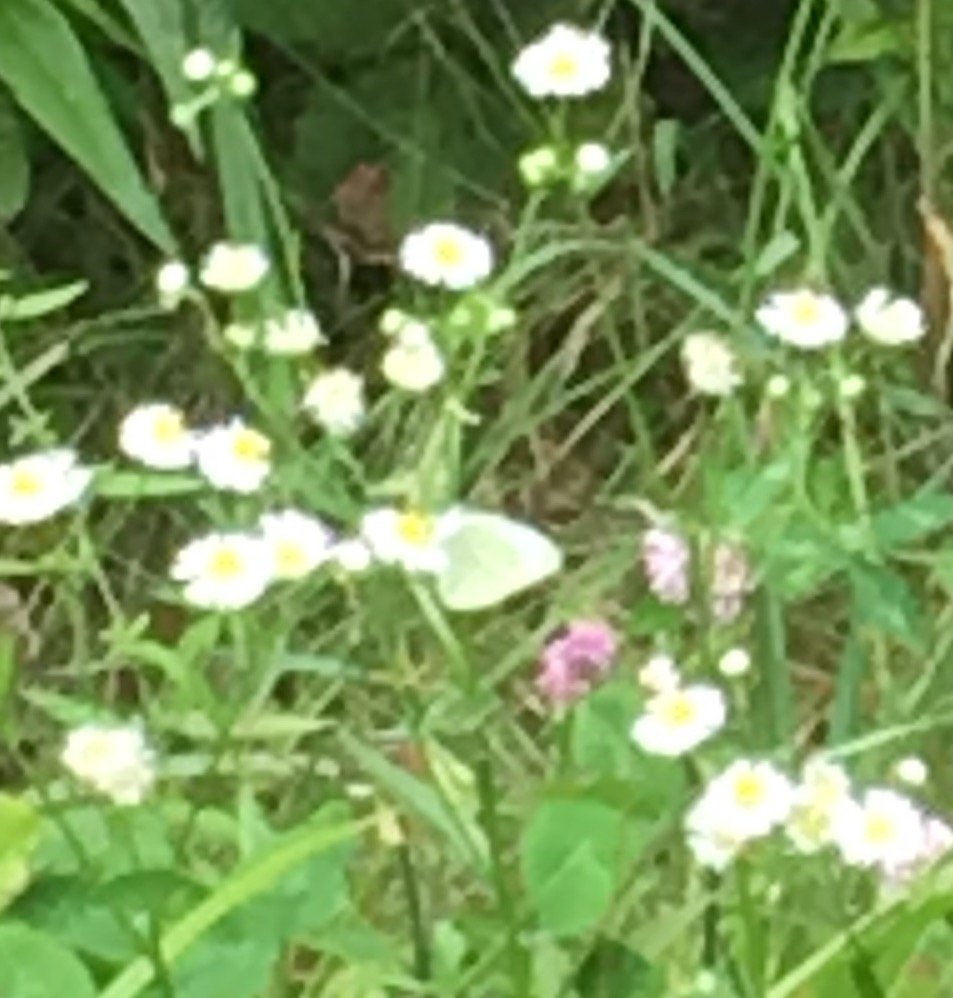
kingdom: Animalia
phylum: Arthropoda
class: Insecta
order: Lepidoptera
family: Pieridae
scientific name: Pieridae
